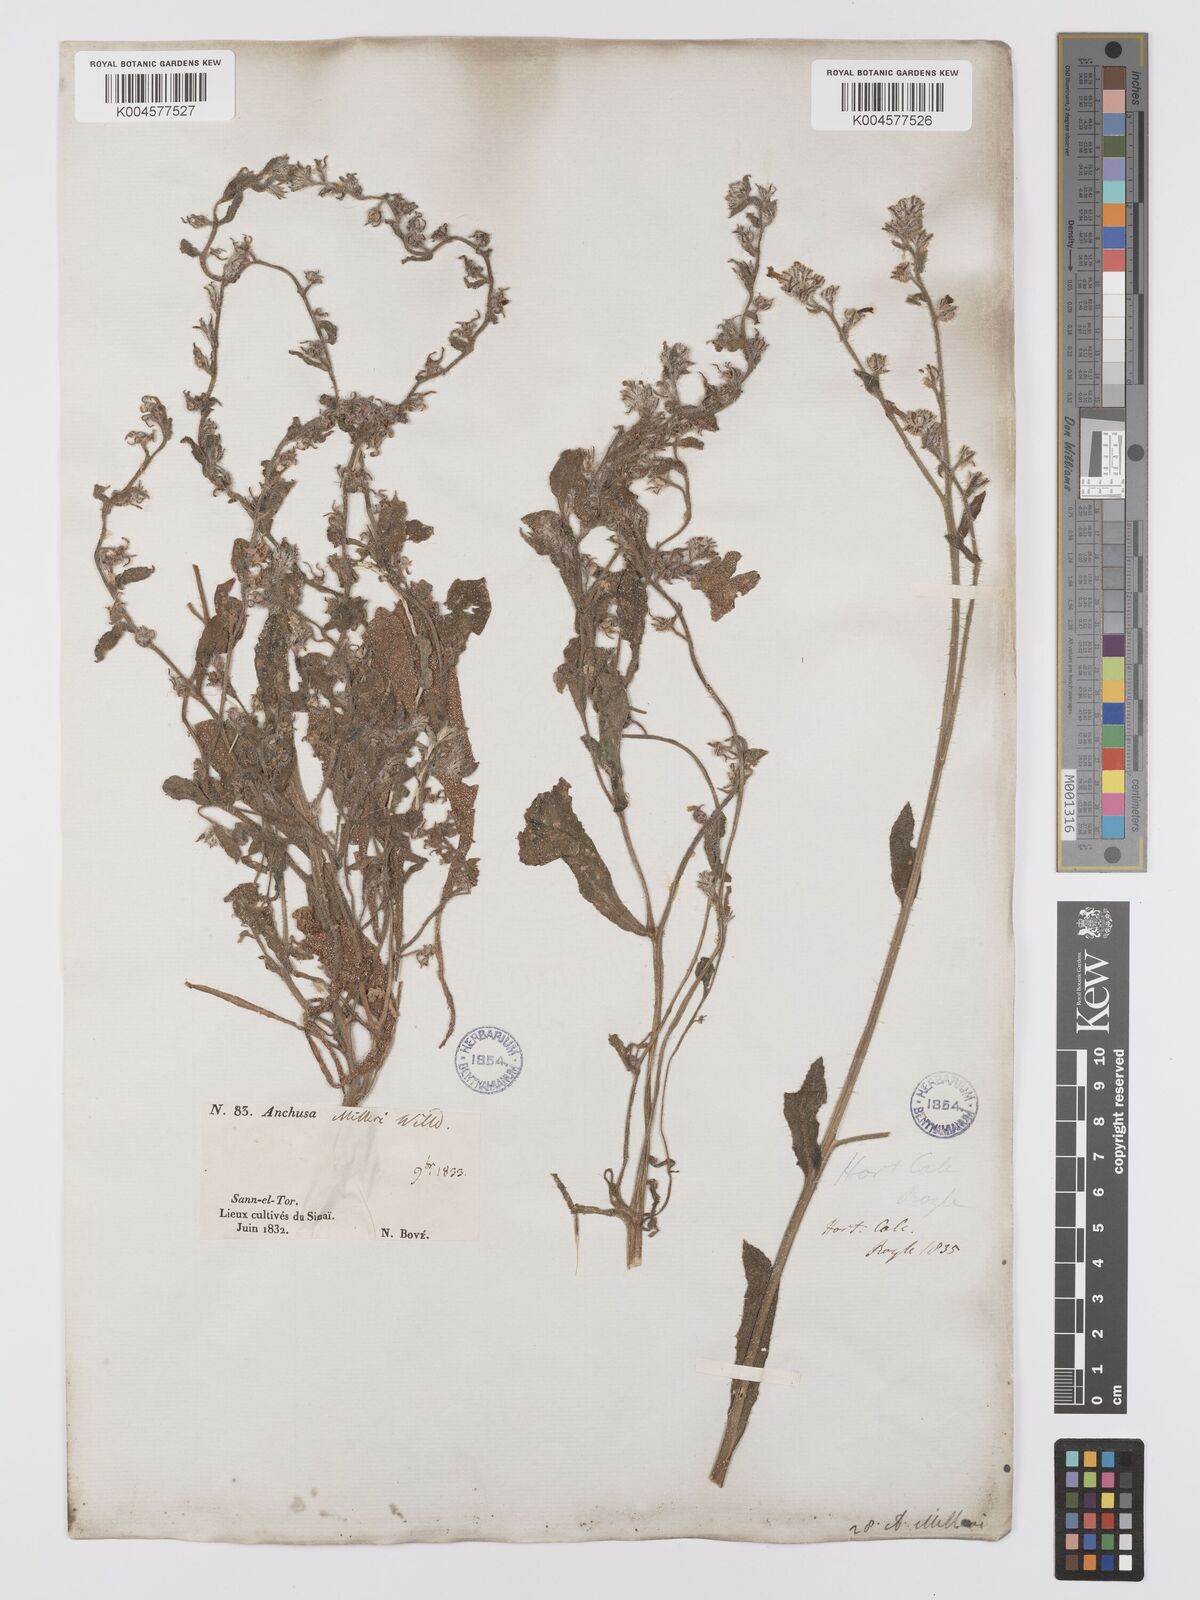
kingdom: Plantae
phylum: Tracheophyta
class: Magnoliopsida
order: Boraginales
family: Boraginaceae
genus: Anchusa
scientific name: Anchusa milleri
